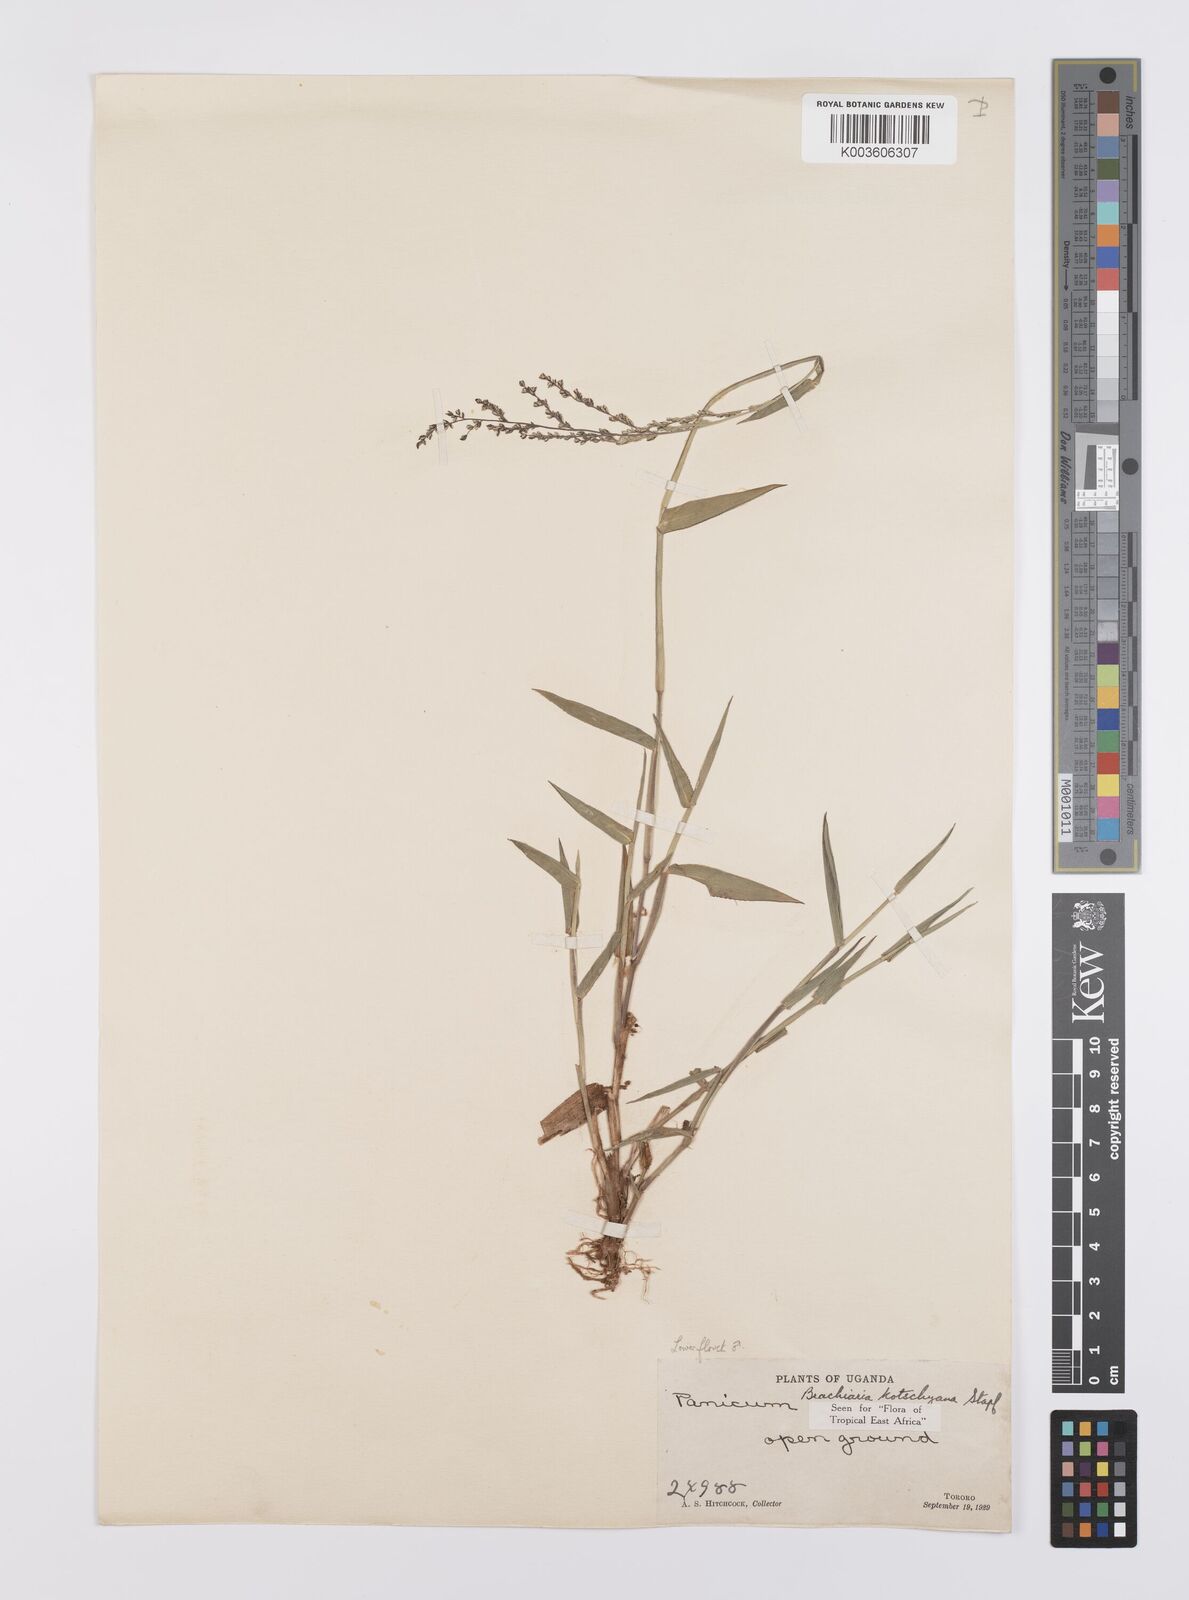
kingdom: Plantae
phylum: Tracheophyta
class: Liliopsida
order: Poales
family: Poaceae
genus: Urochloa
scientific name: Urochloa comata
